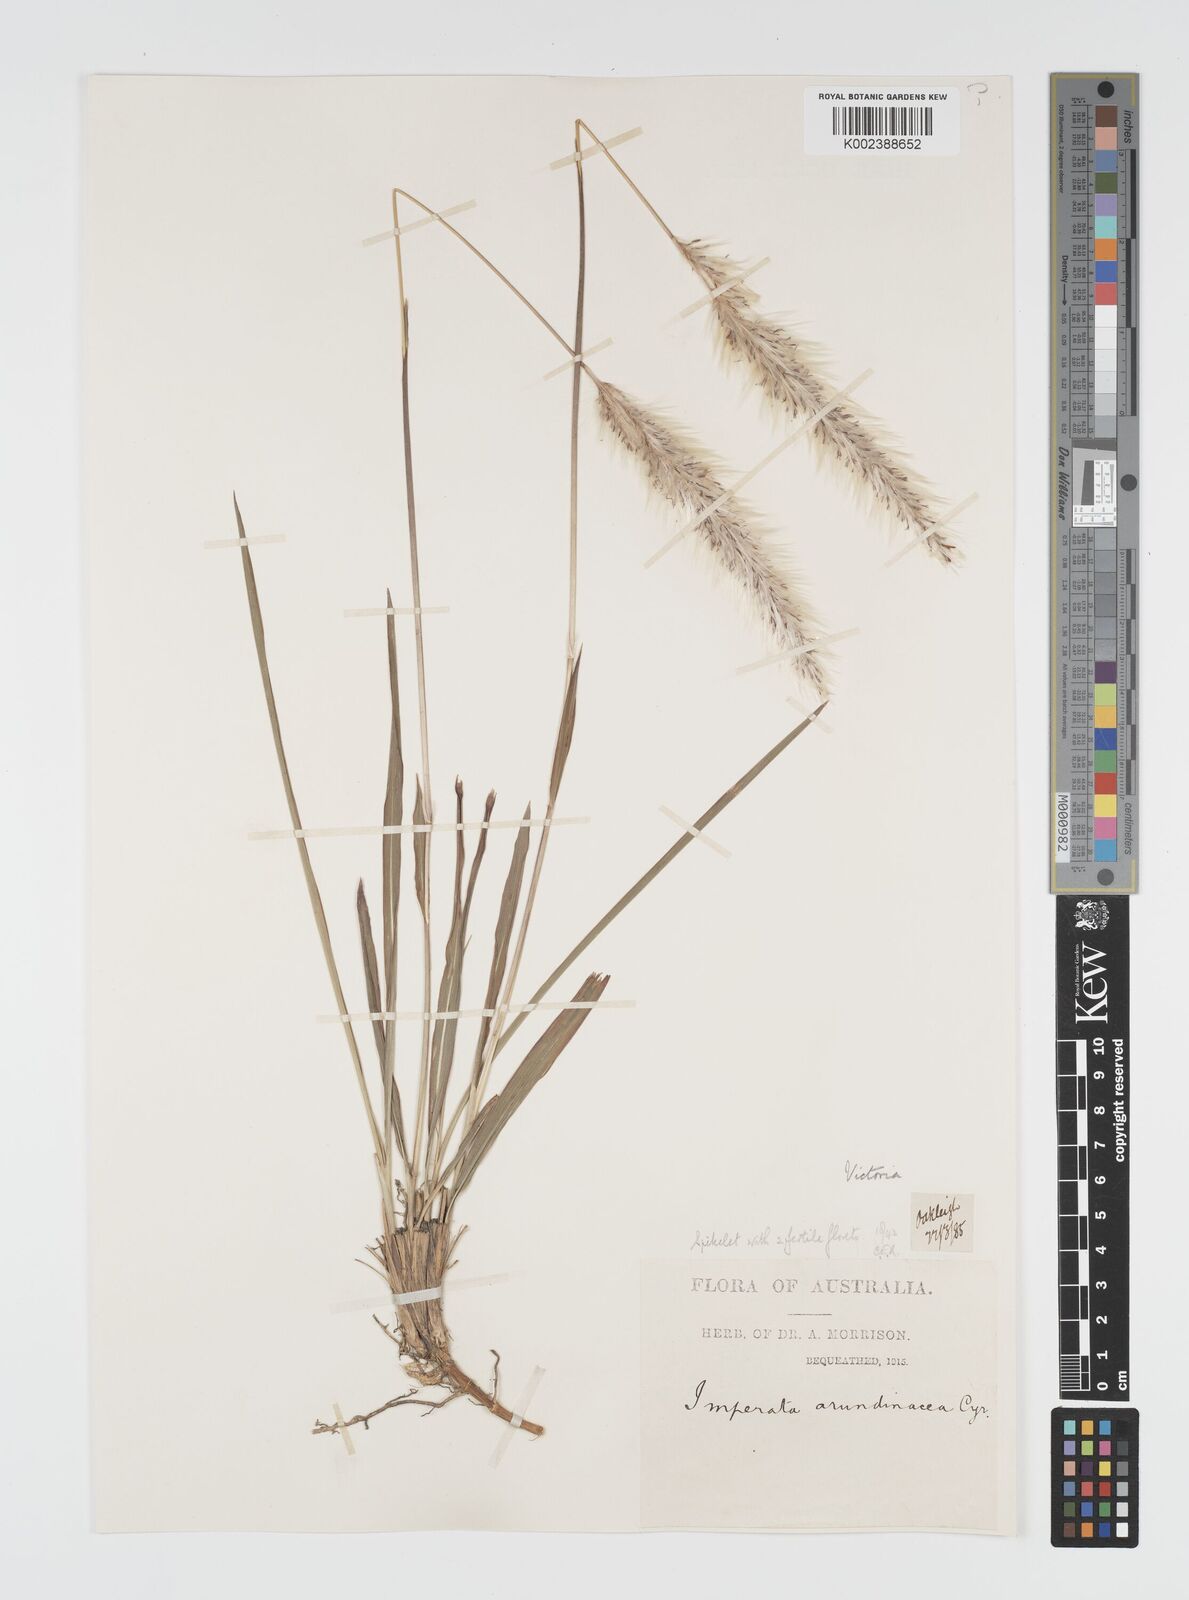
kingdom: Plantae
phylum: Tracheophyta
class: Liliopsida
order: Poales
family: Poaceae
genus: Imperata
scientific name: Imperata cylindrica
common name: Cogongrass
